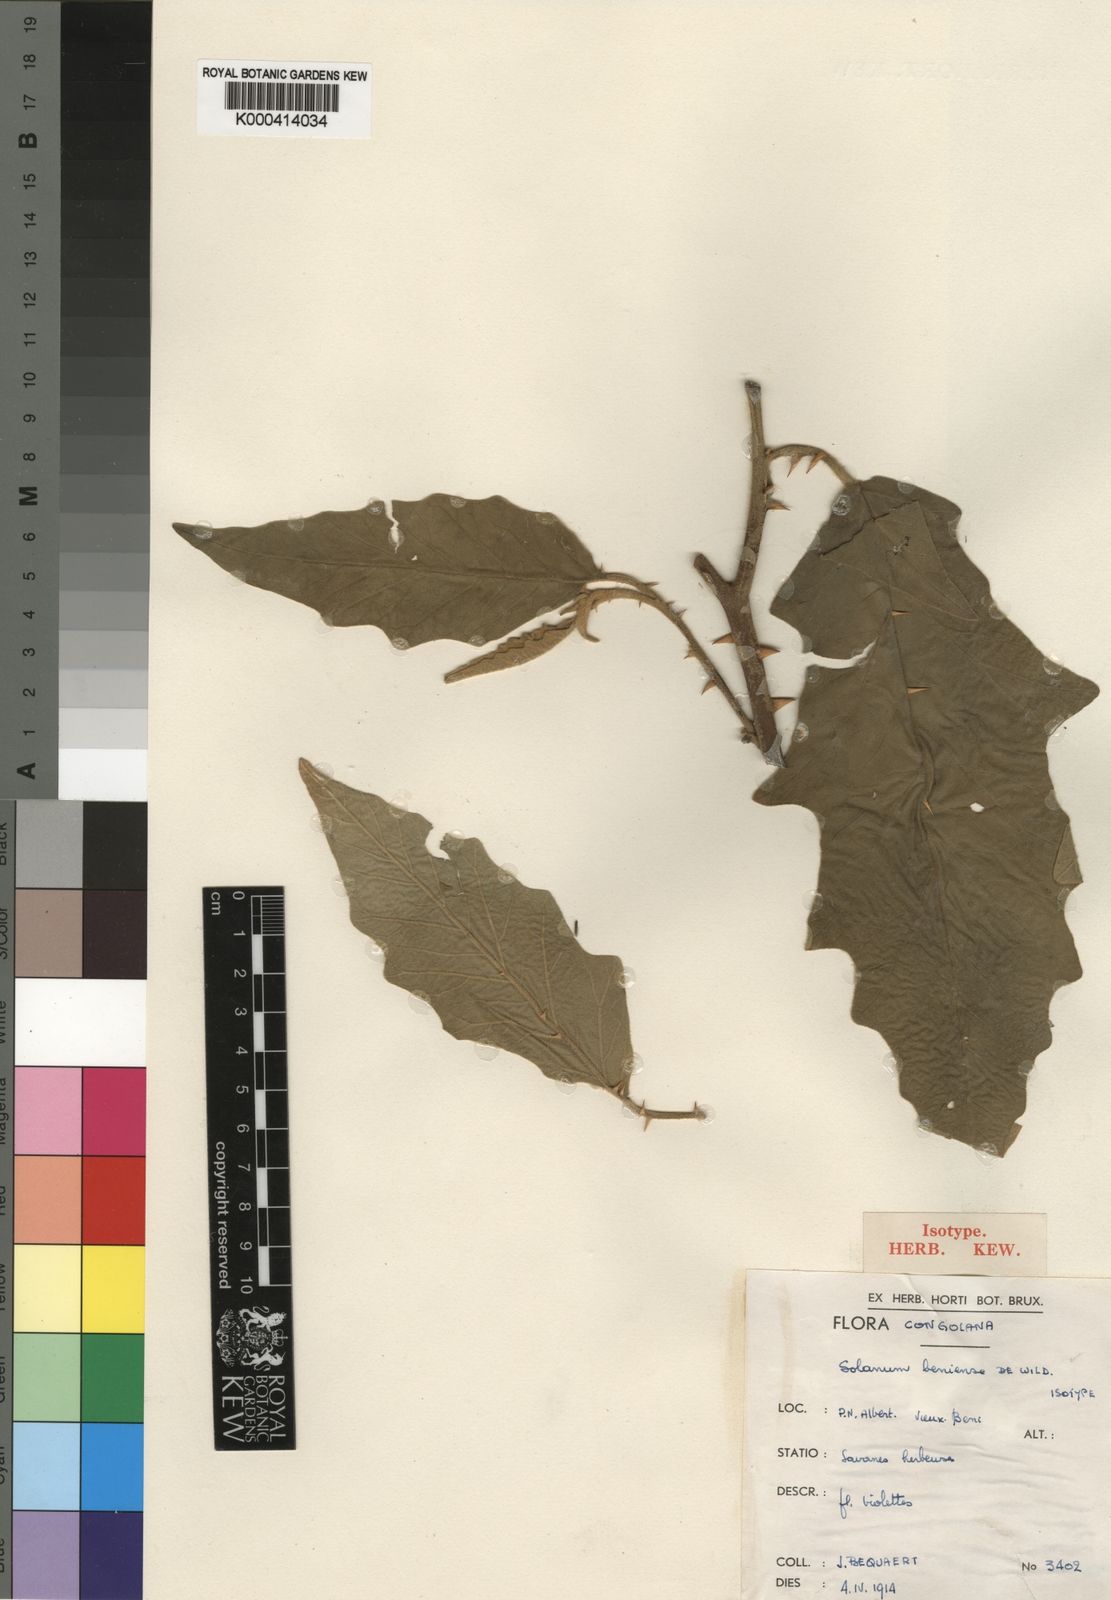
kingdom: Plantae
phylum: Tracheophyta
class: Magnoliopsida
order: Solanales
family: Solanaceae
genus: Solanum
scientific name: Solanum incanum
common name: Bitter apple
